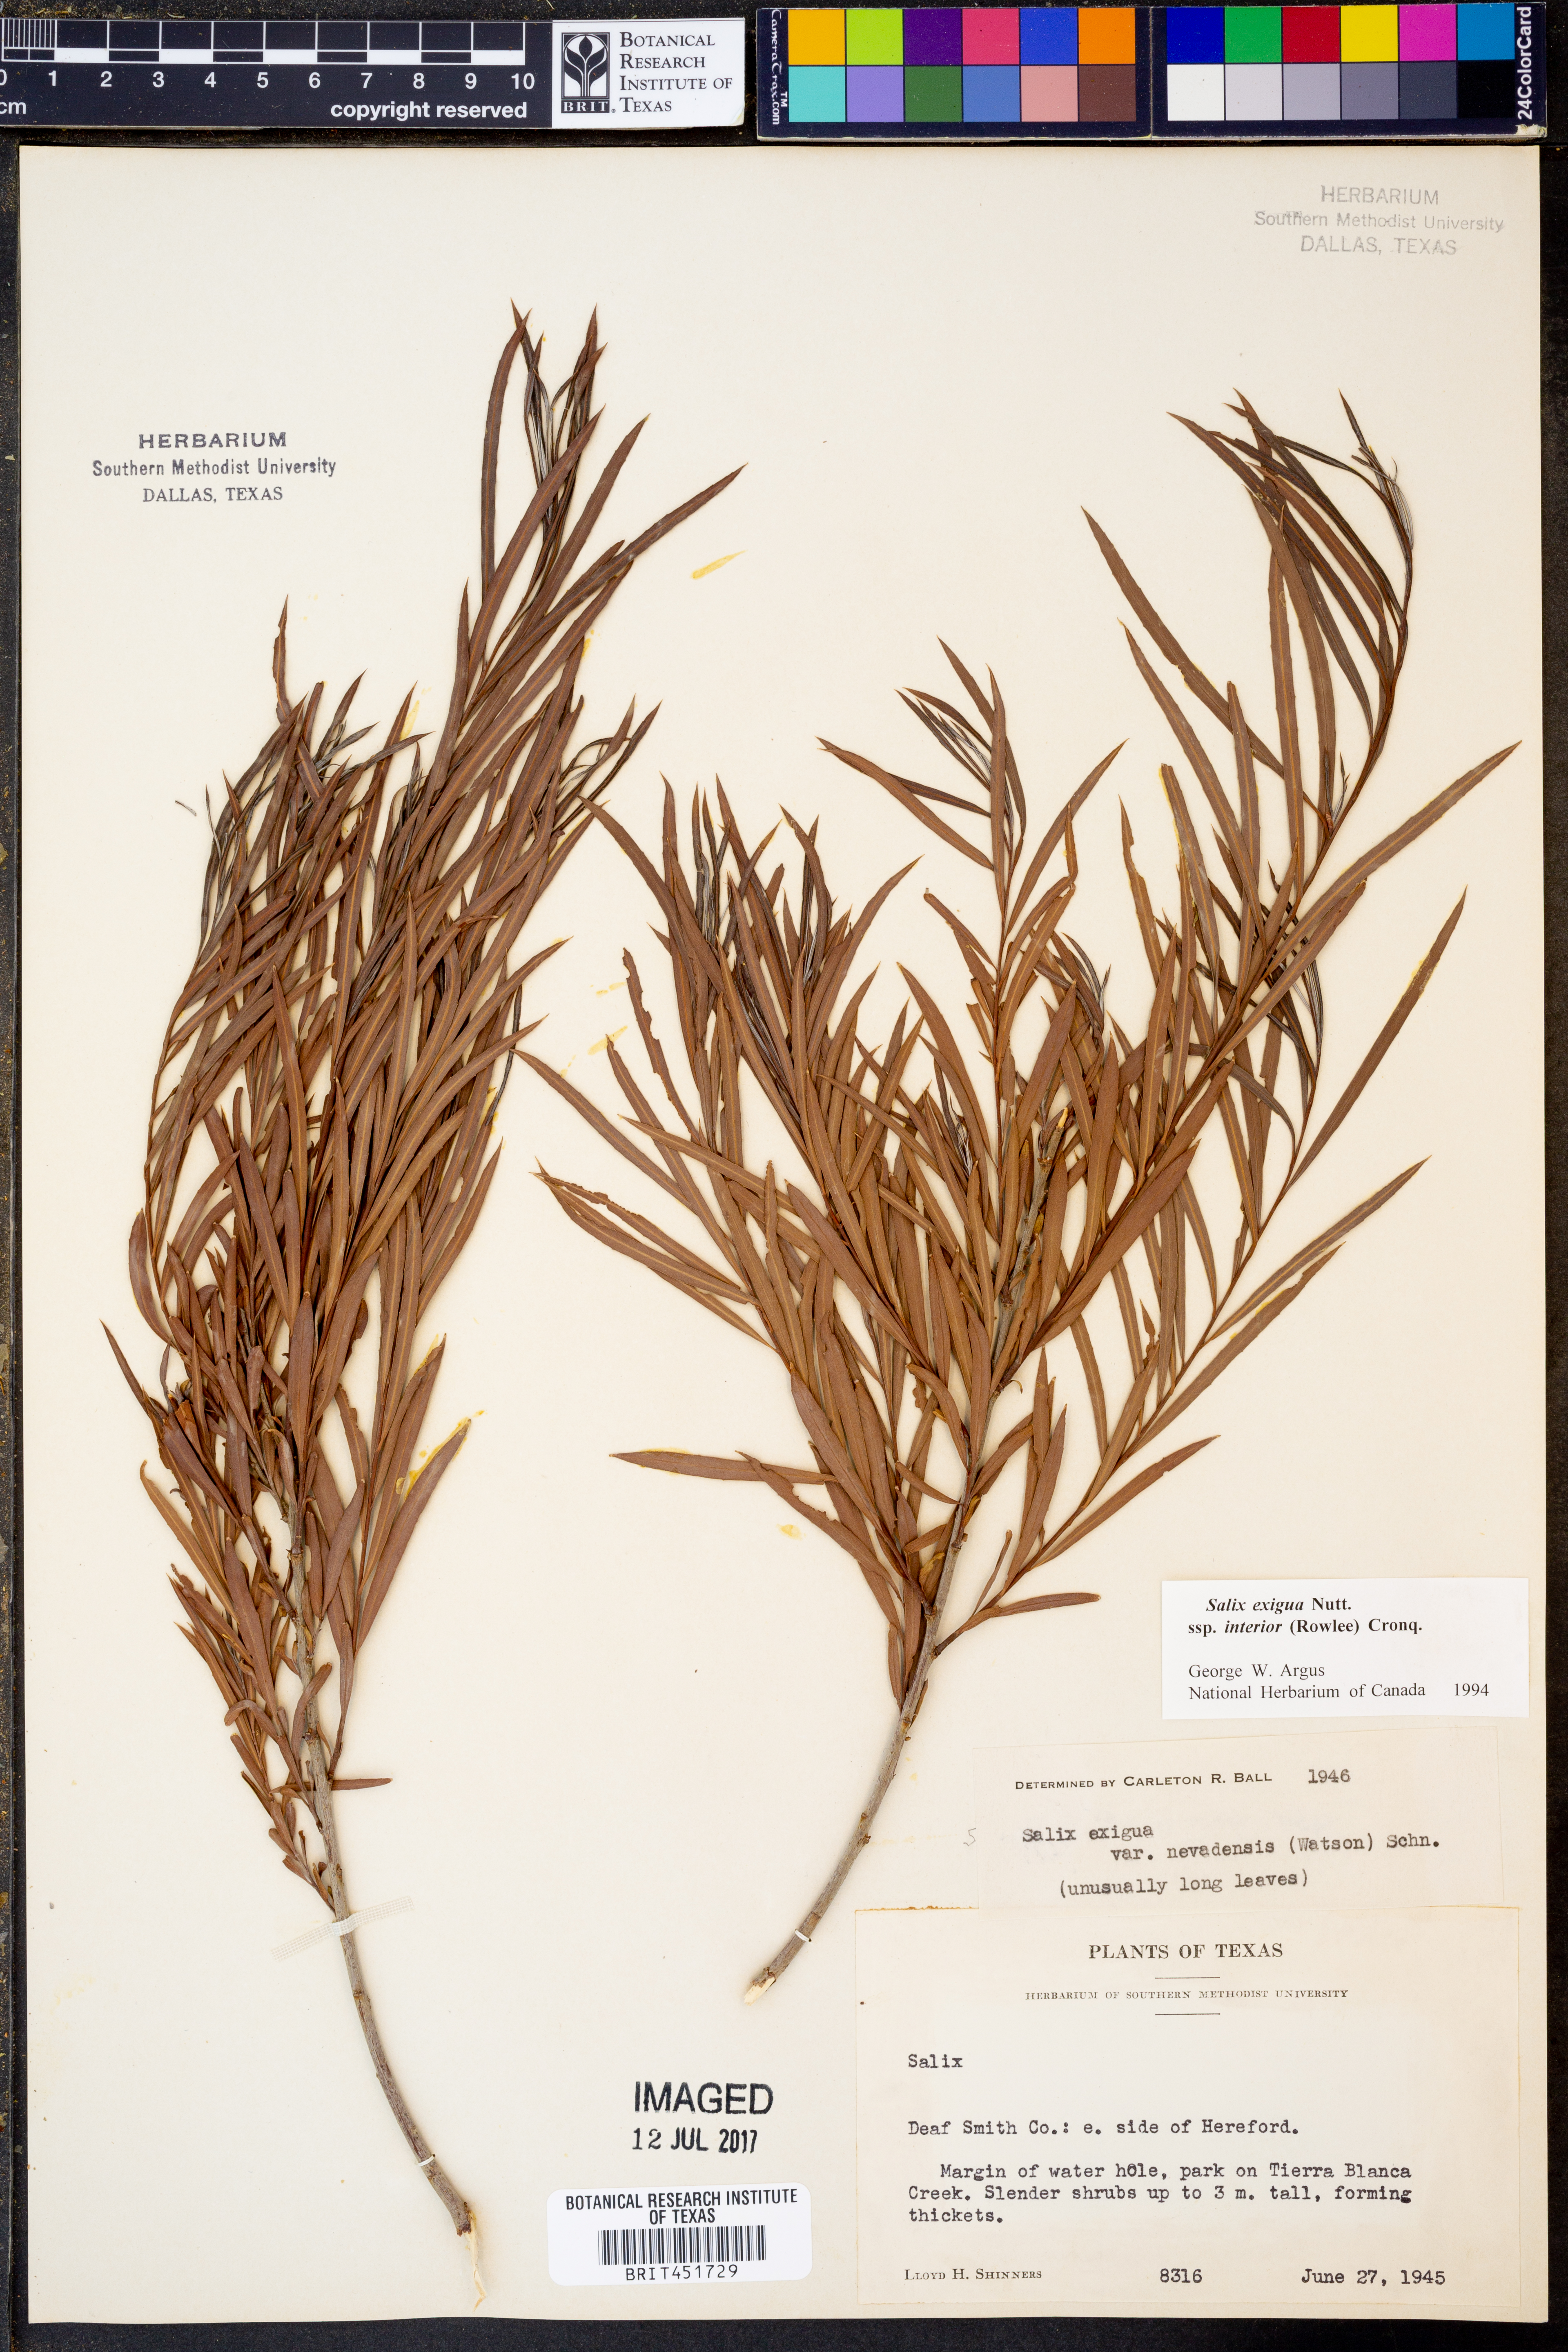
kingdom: Plantae
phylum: Tracheophyta
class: Magnoliopsida
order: Malpighiales
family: Salicaceae
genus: Salix
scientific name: Salix exigua
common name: Coyote willow
